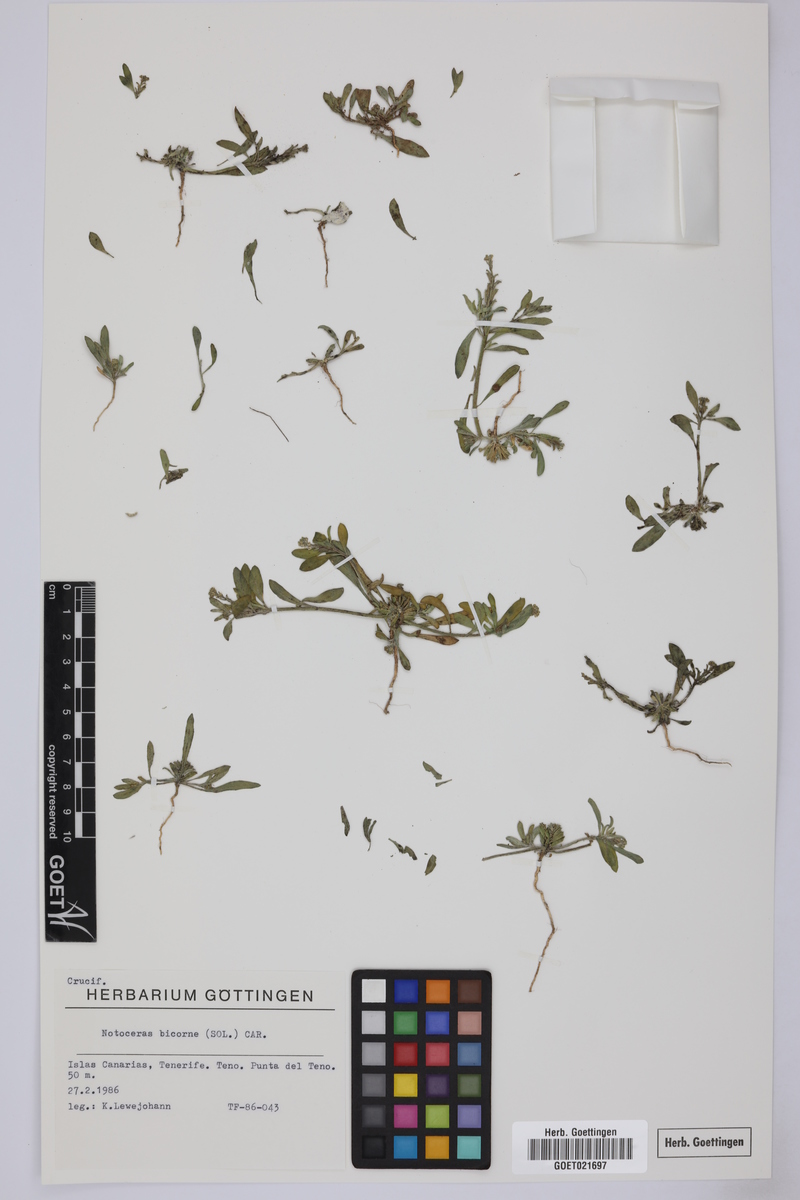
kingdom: Plantae
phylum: Tracheophyta
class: Magnoliopsida
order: Brassicales
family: Brassicaceae
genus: Notoceras
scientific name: Notoceras bicorne
